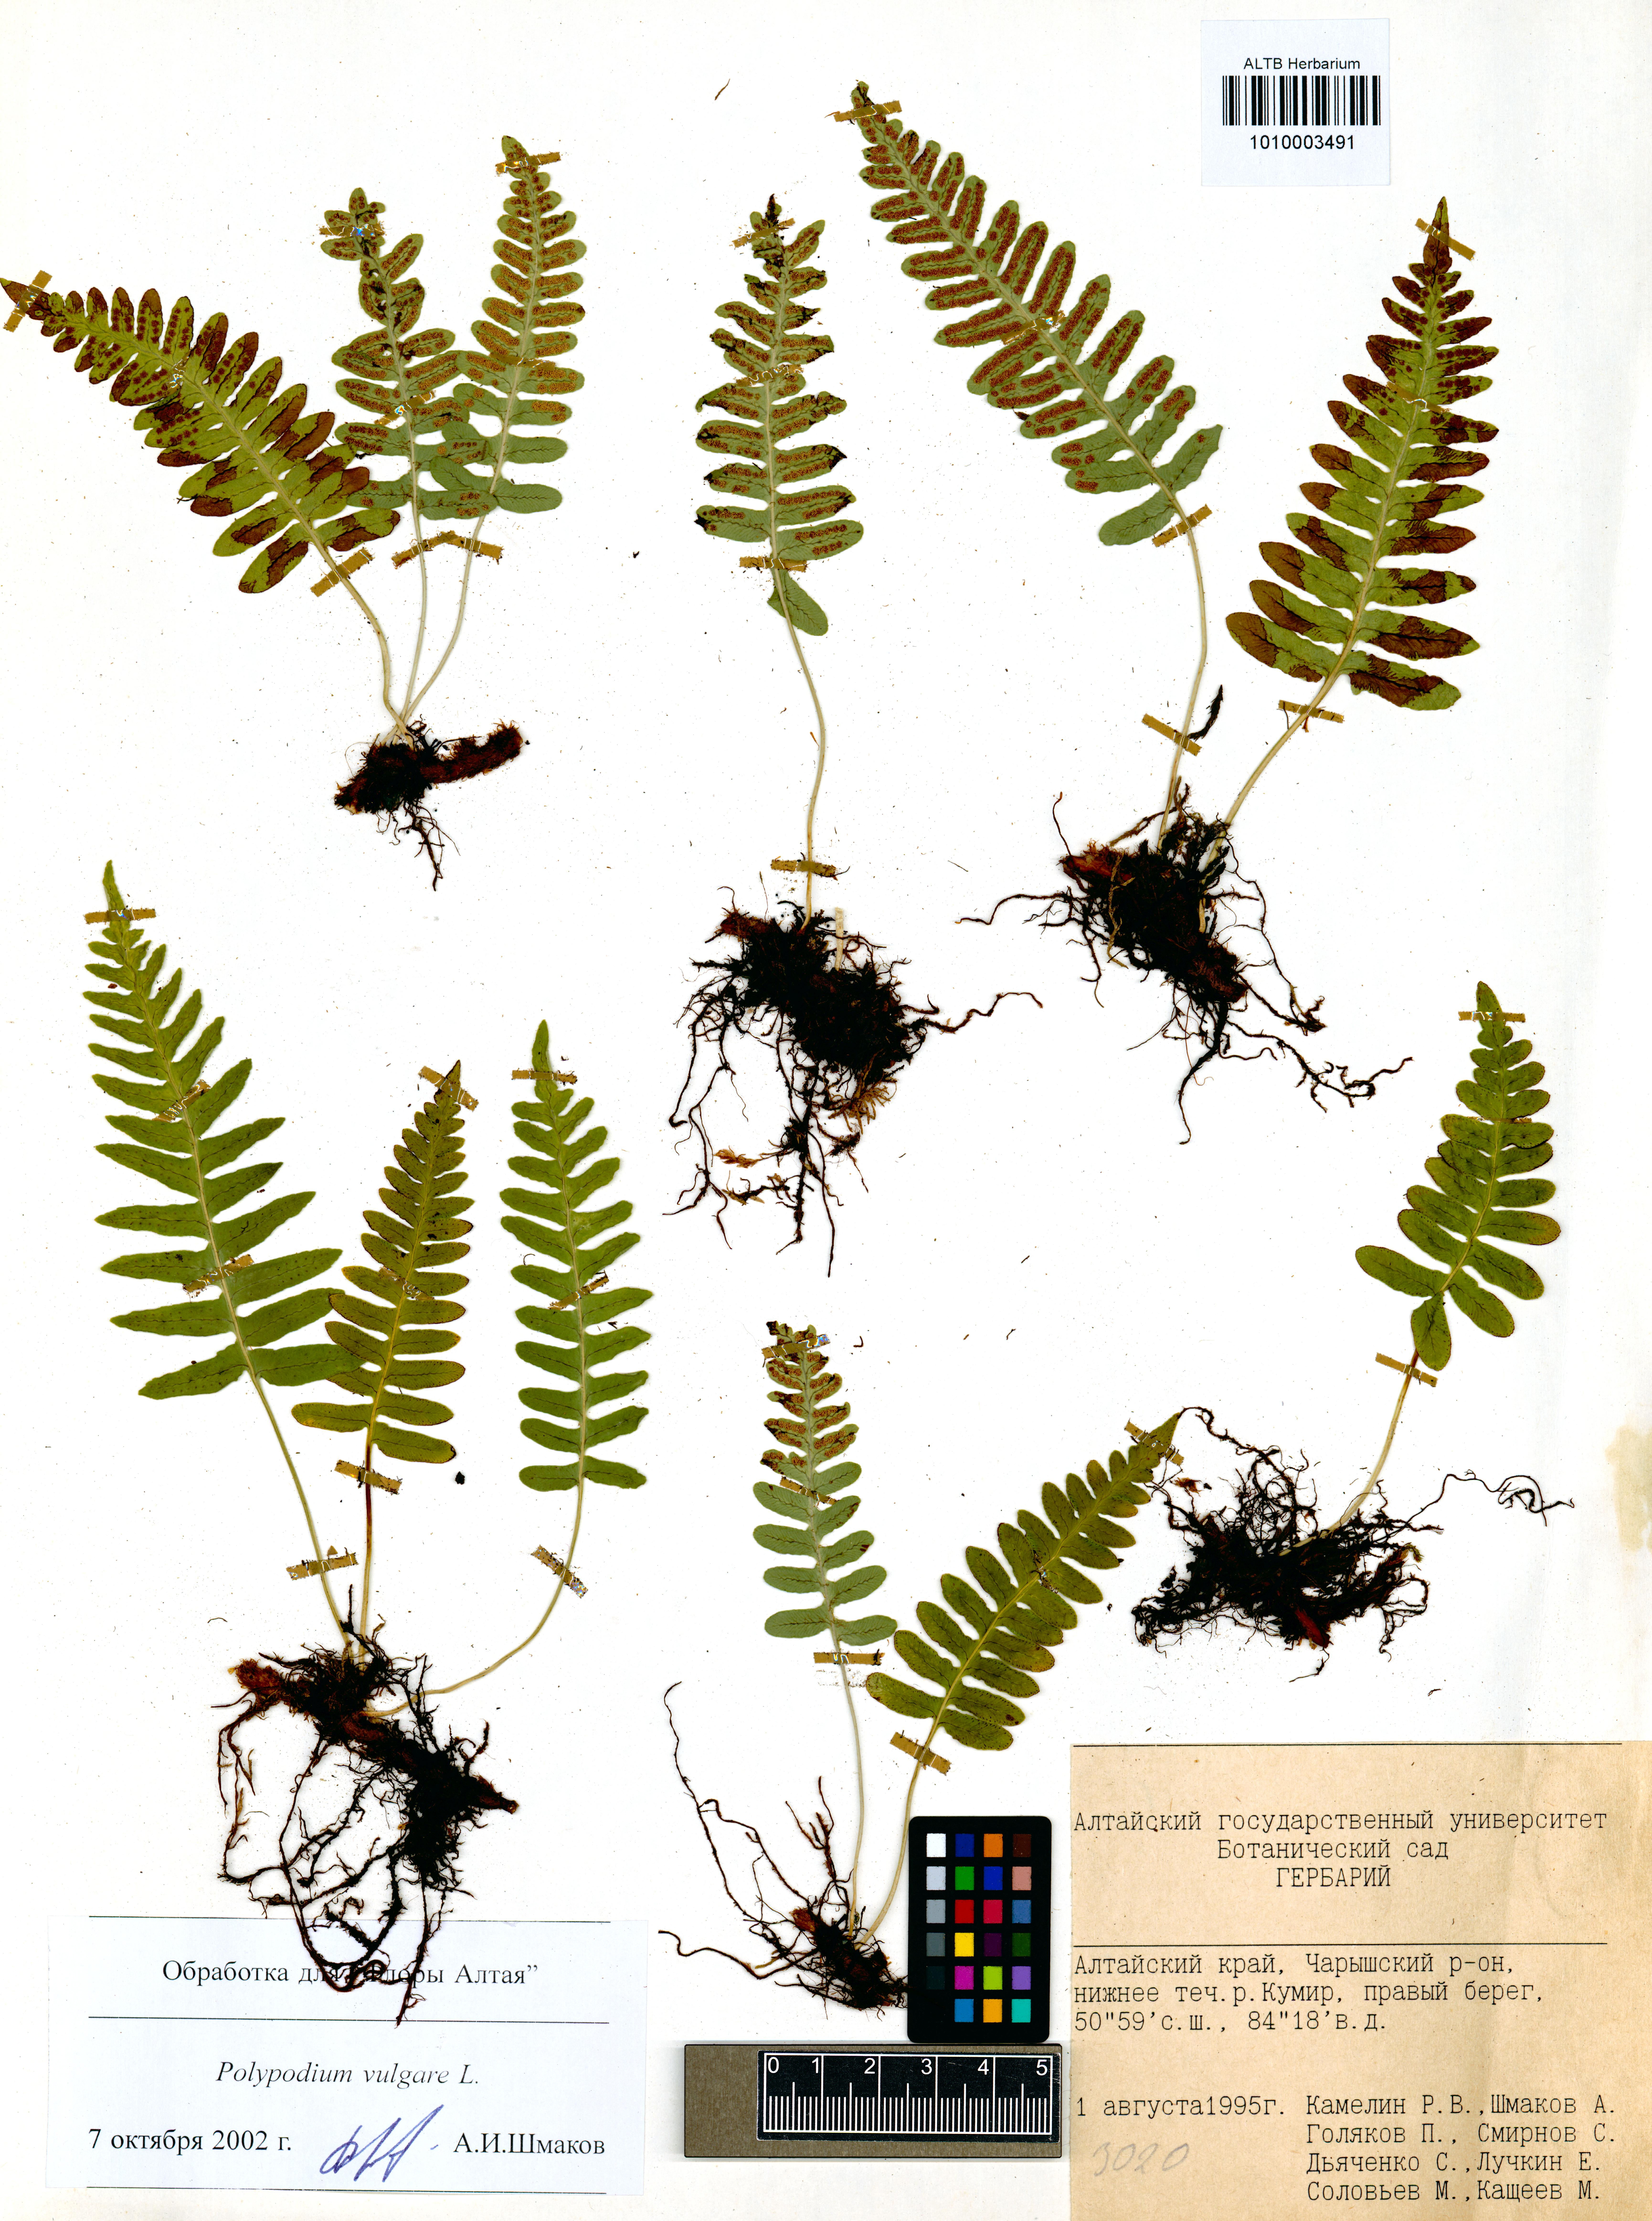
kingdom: Plantae
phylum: Tracheophyta
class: Polypodiopsida
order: Polypodiales
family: Polypodiaceae
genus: Polypodium
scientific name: Polypodium vulgare
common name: Common polypody
